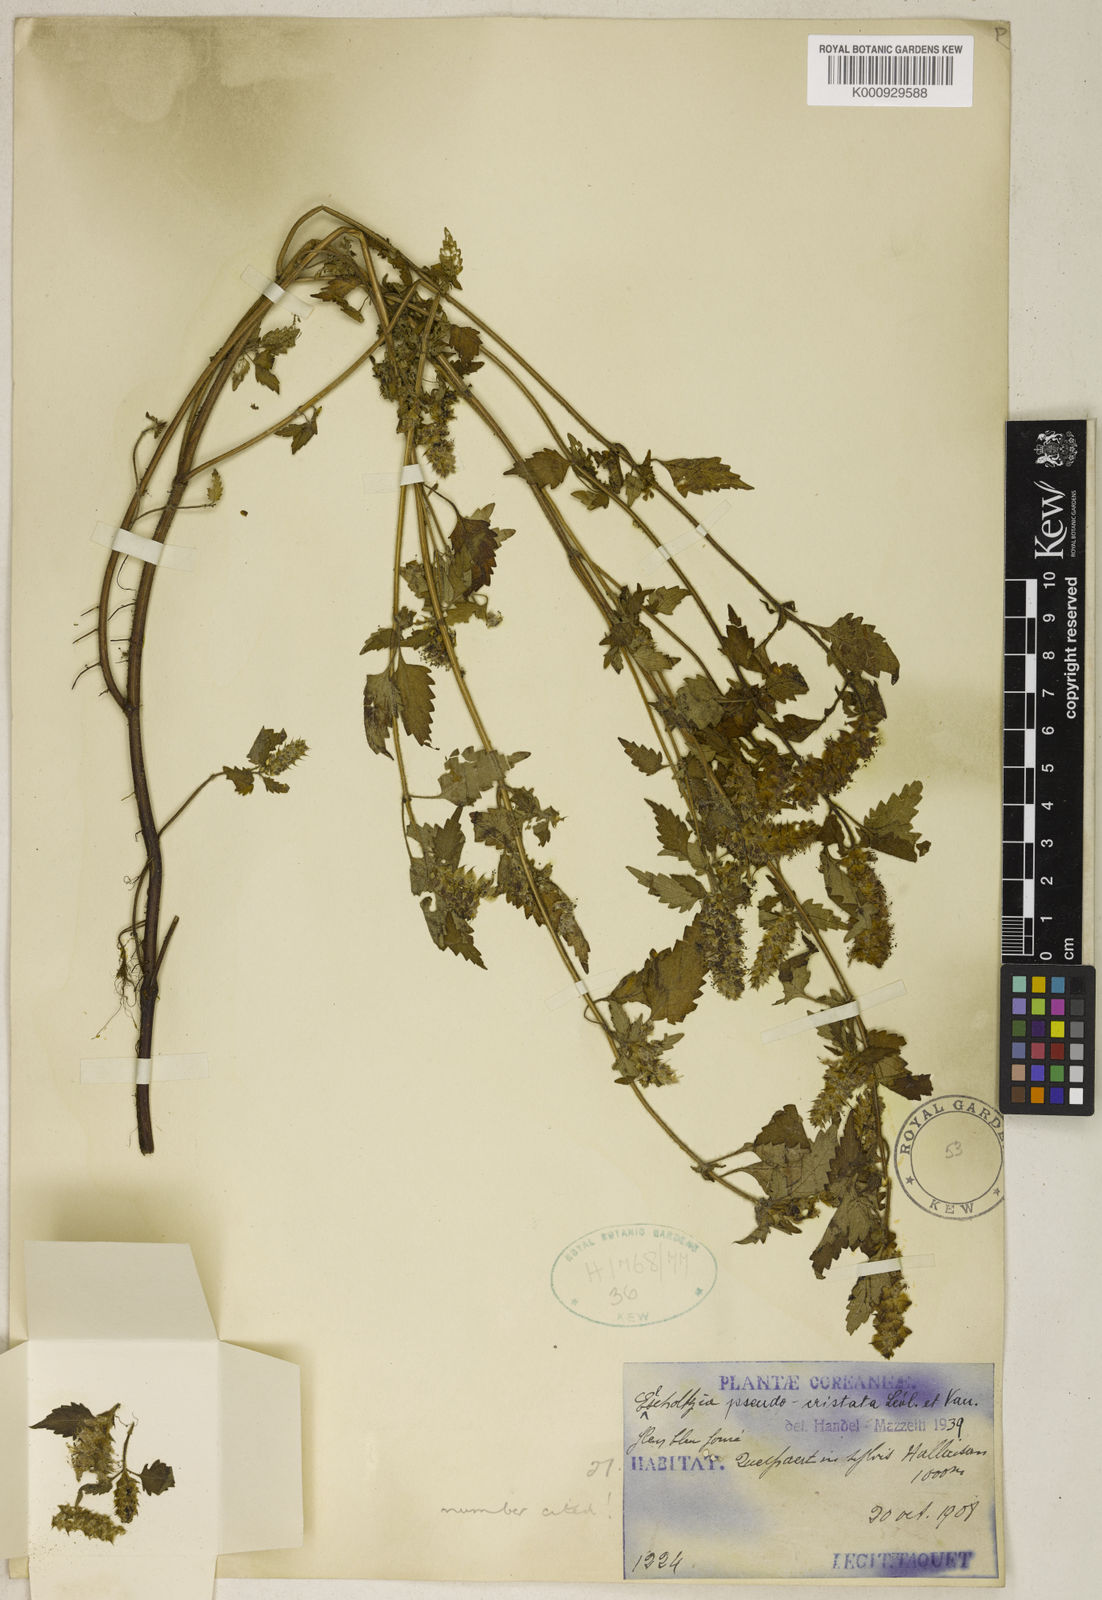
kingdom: Plantae
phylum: Tracheophyta
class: Magnoliopsida
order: Lamiales
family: Lamiaceae
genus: Elsholtzia
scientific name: Elsholtzia ciliata
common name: Ciliate elsholtzia
